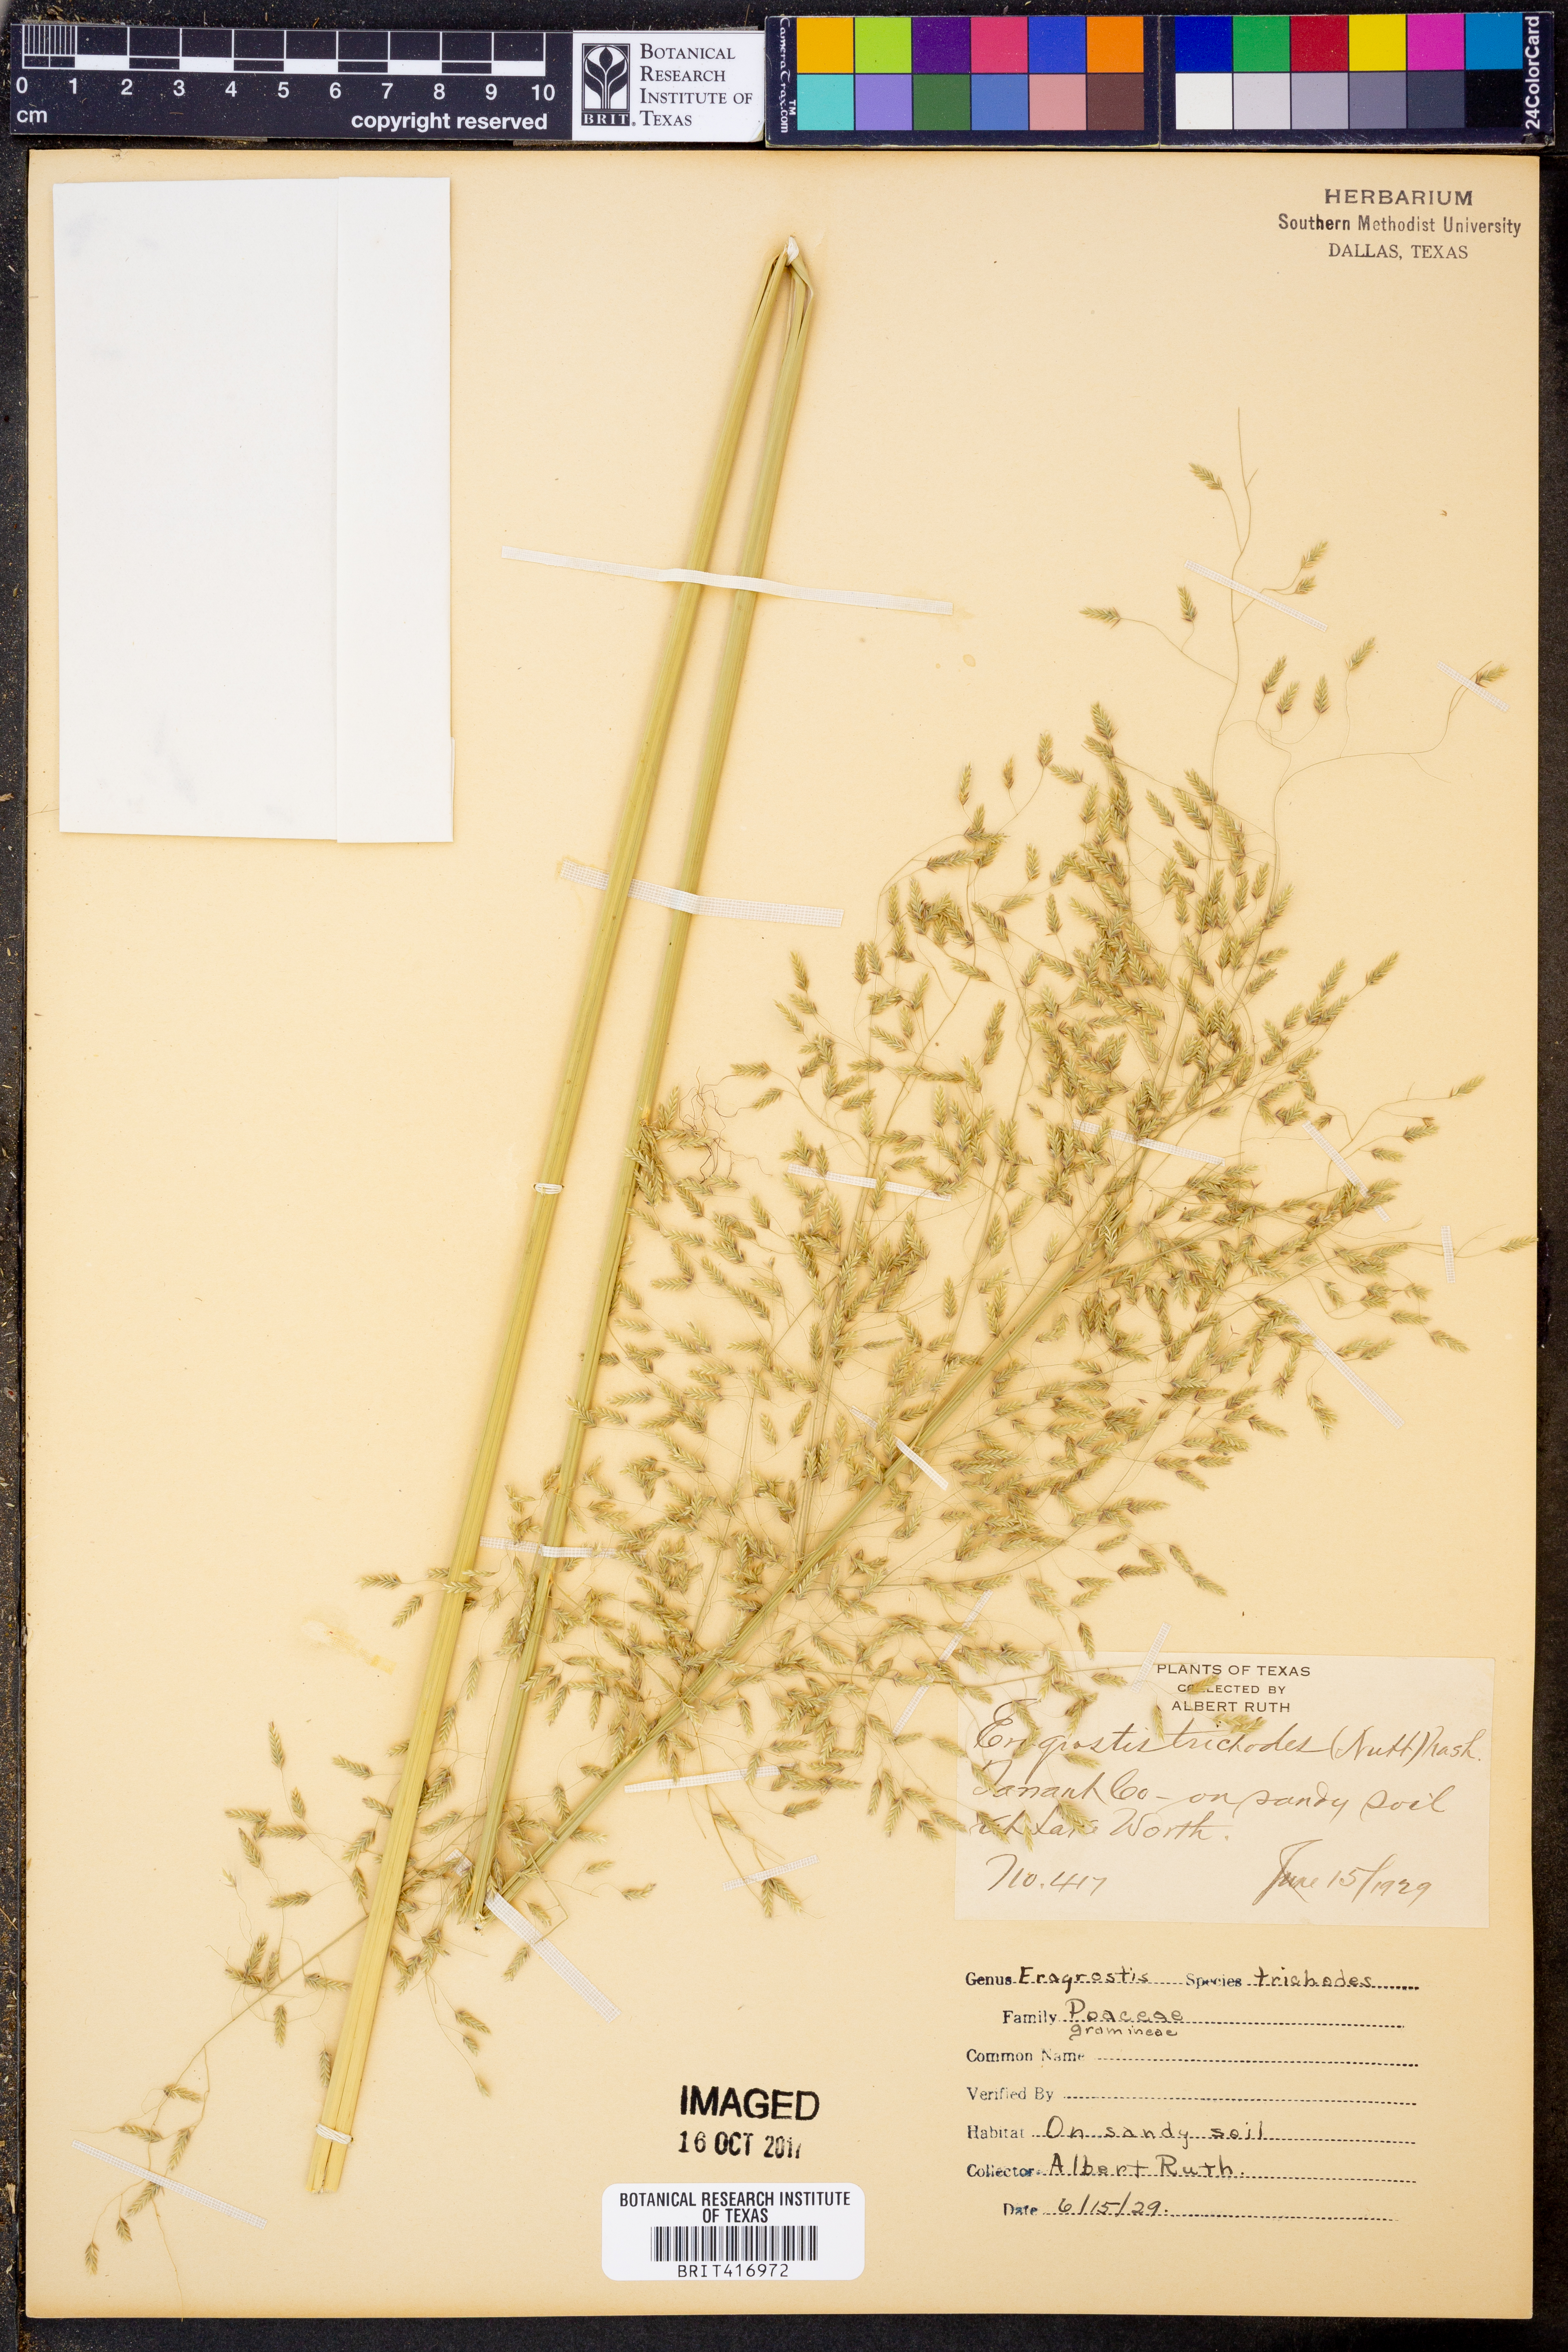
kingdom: Plantae
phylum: Tracheophyta
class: Liliopsida
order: Poales
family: Poaceae
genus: Eragrostis
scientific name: Eragrostis trichodes
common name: Sand love grass
